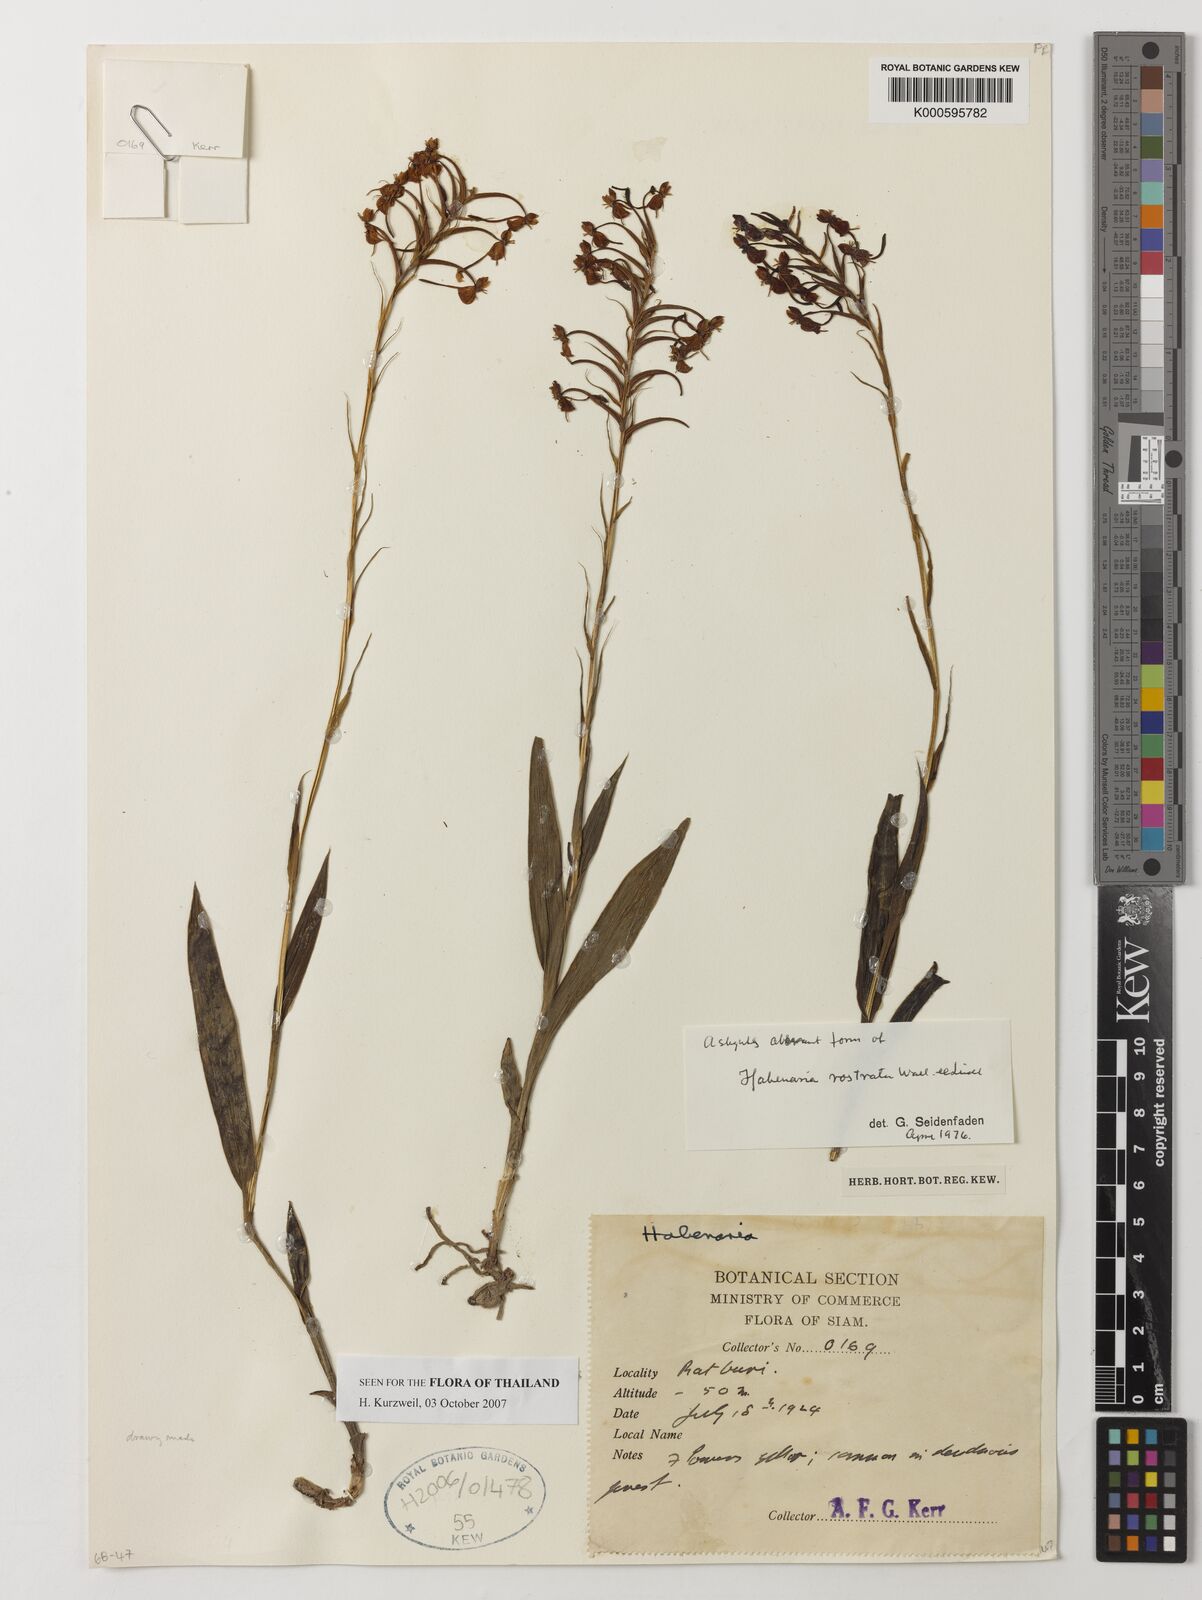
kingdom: Plantae
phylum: Tracheophyta
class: Liliopsida
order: Asparagales
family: Orchidaceae
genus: Habenaria
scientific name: Habenaria rostrata
